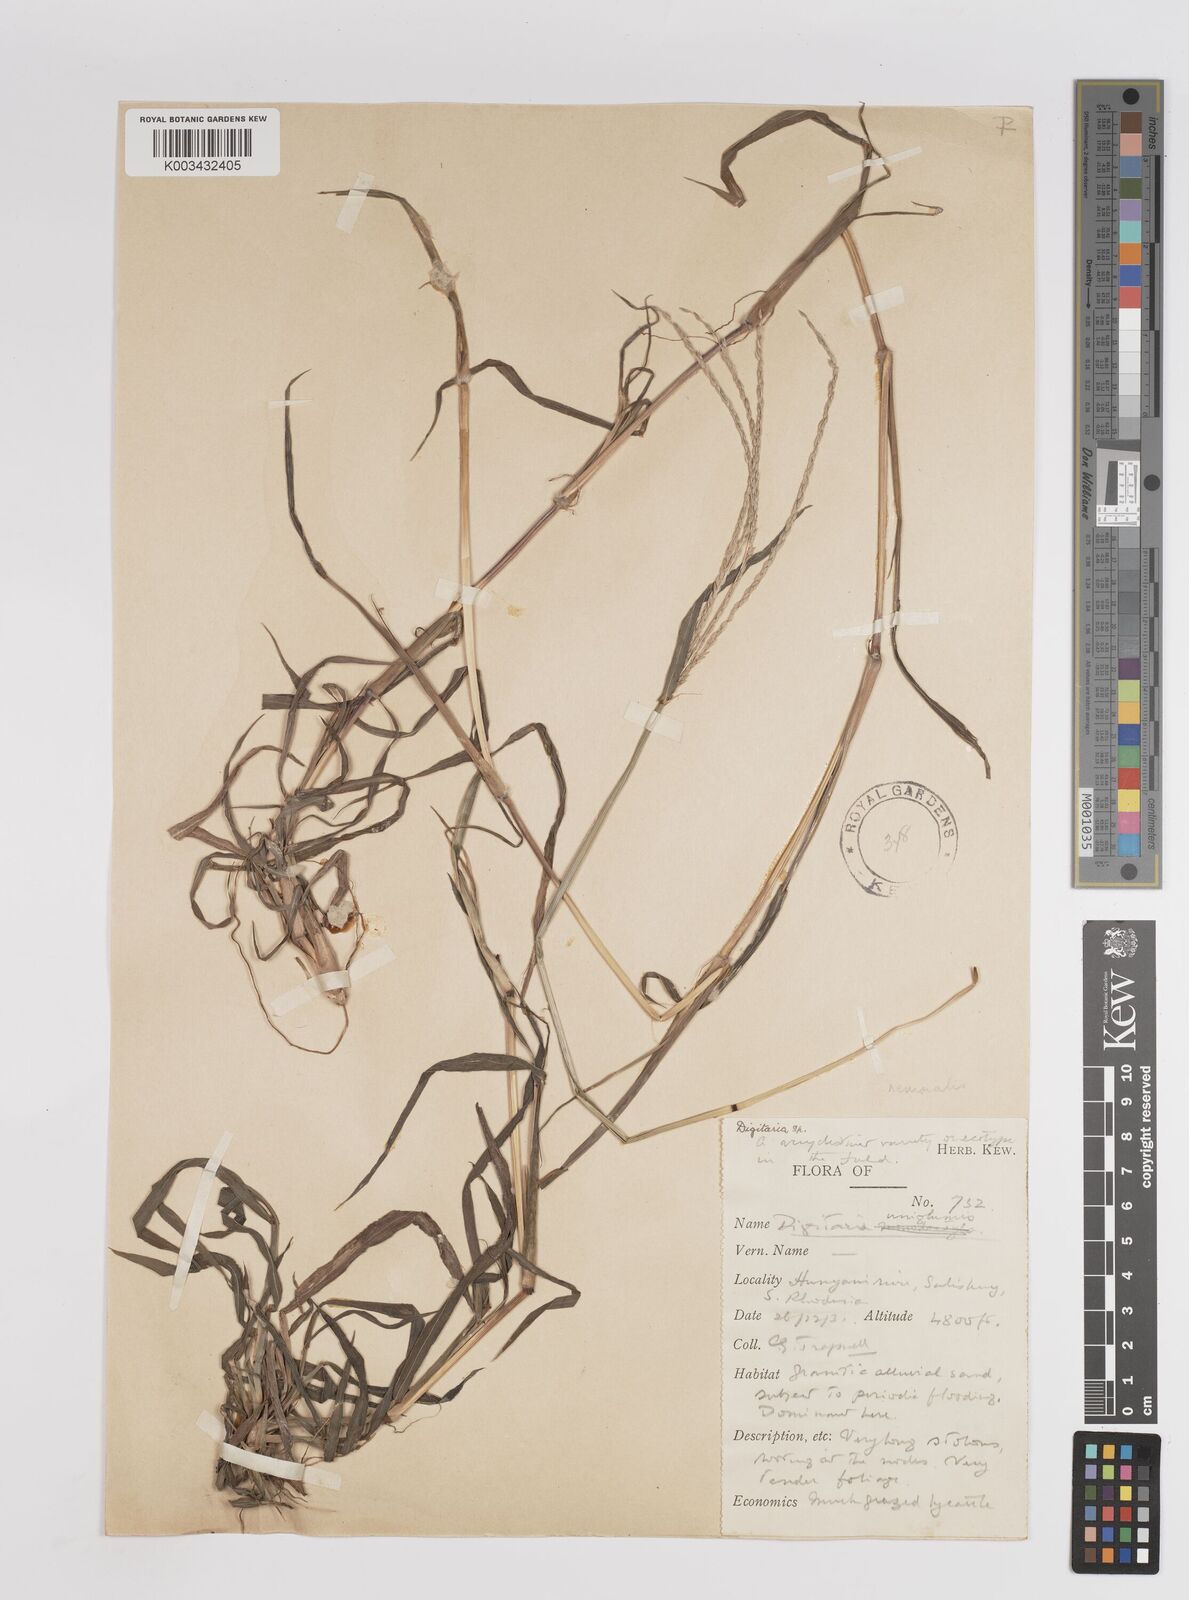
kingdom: Plantae
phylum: Tracheophyta
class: Liliopsida
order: Poales
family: Poaceae
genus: Digitaria
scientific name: Digitaria eriantha
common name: Digitgrass
